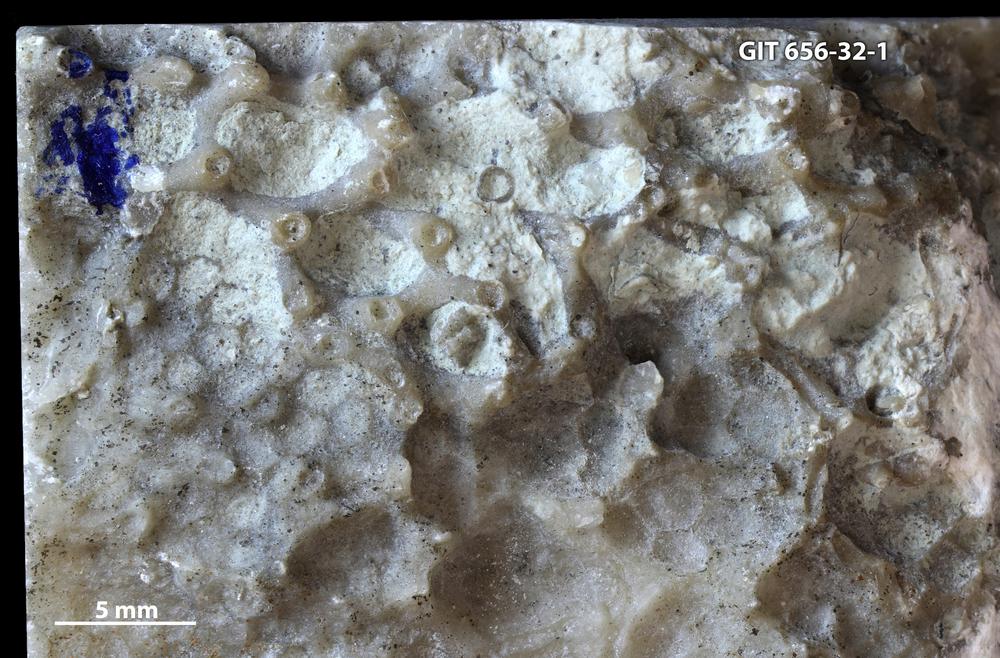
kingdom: Animalia
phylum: Cnidaria
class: Anthozoa
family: Auloporidae
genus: Aulopora
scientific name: Aulopora
